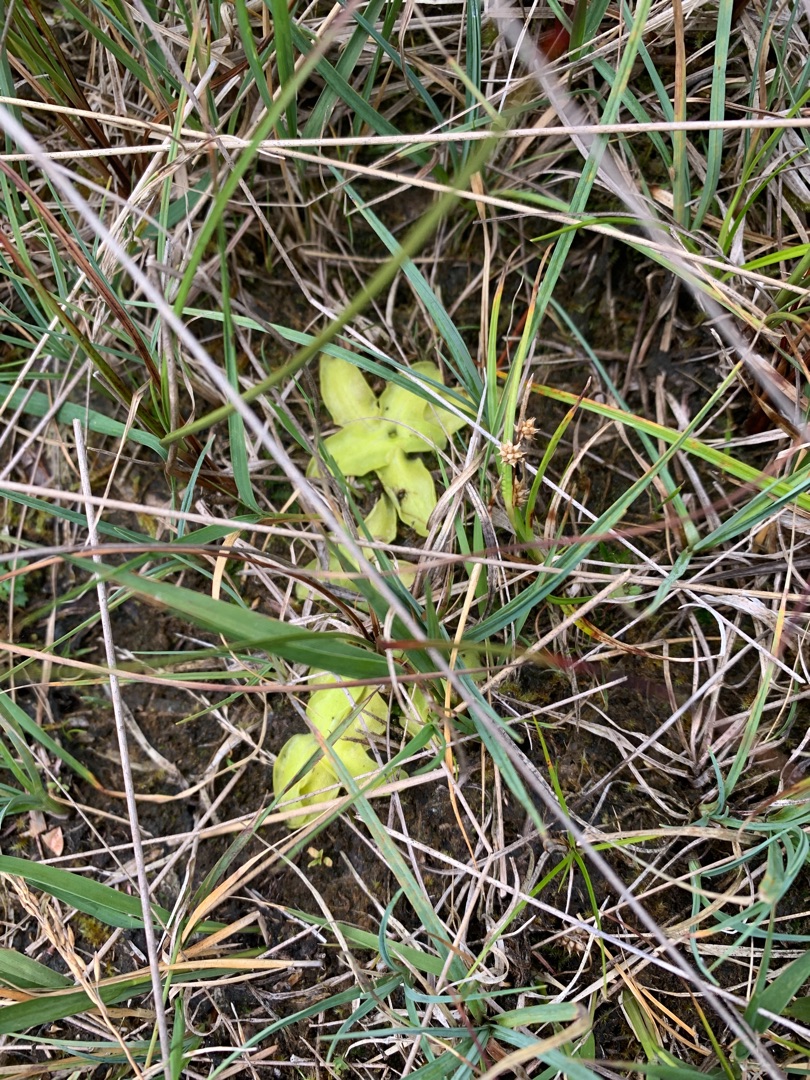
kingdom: Plantae
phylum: Tracheophyta
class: Magnoliopsida
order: Lamiales
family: Lentibulariaceae
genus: Pinguicula
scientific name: Pinguicula vulgaris
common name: Vibefedt
